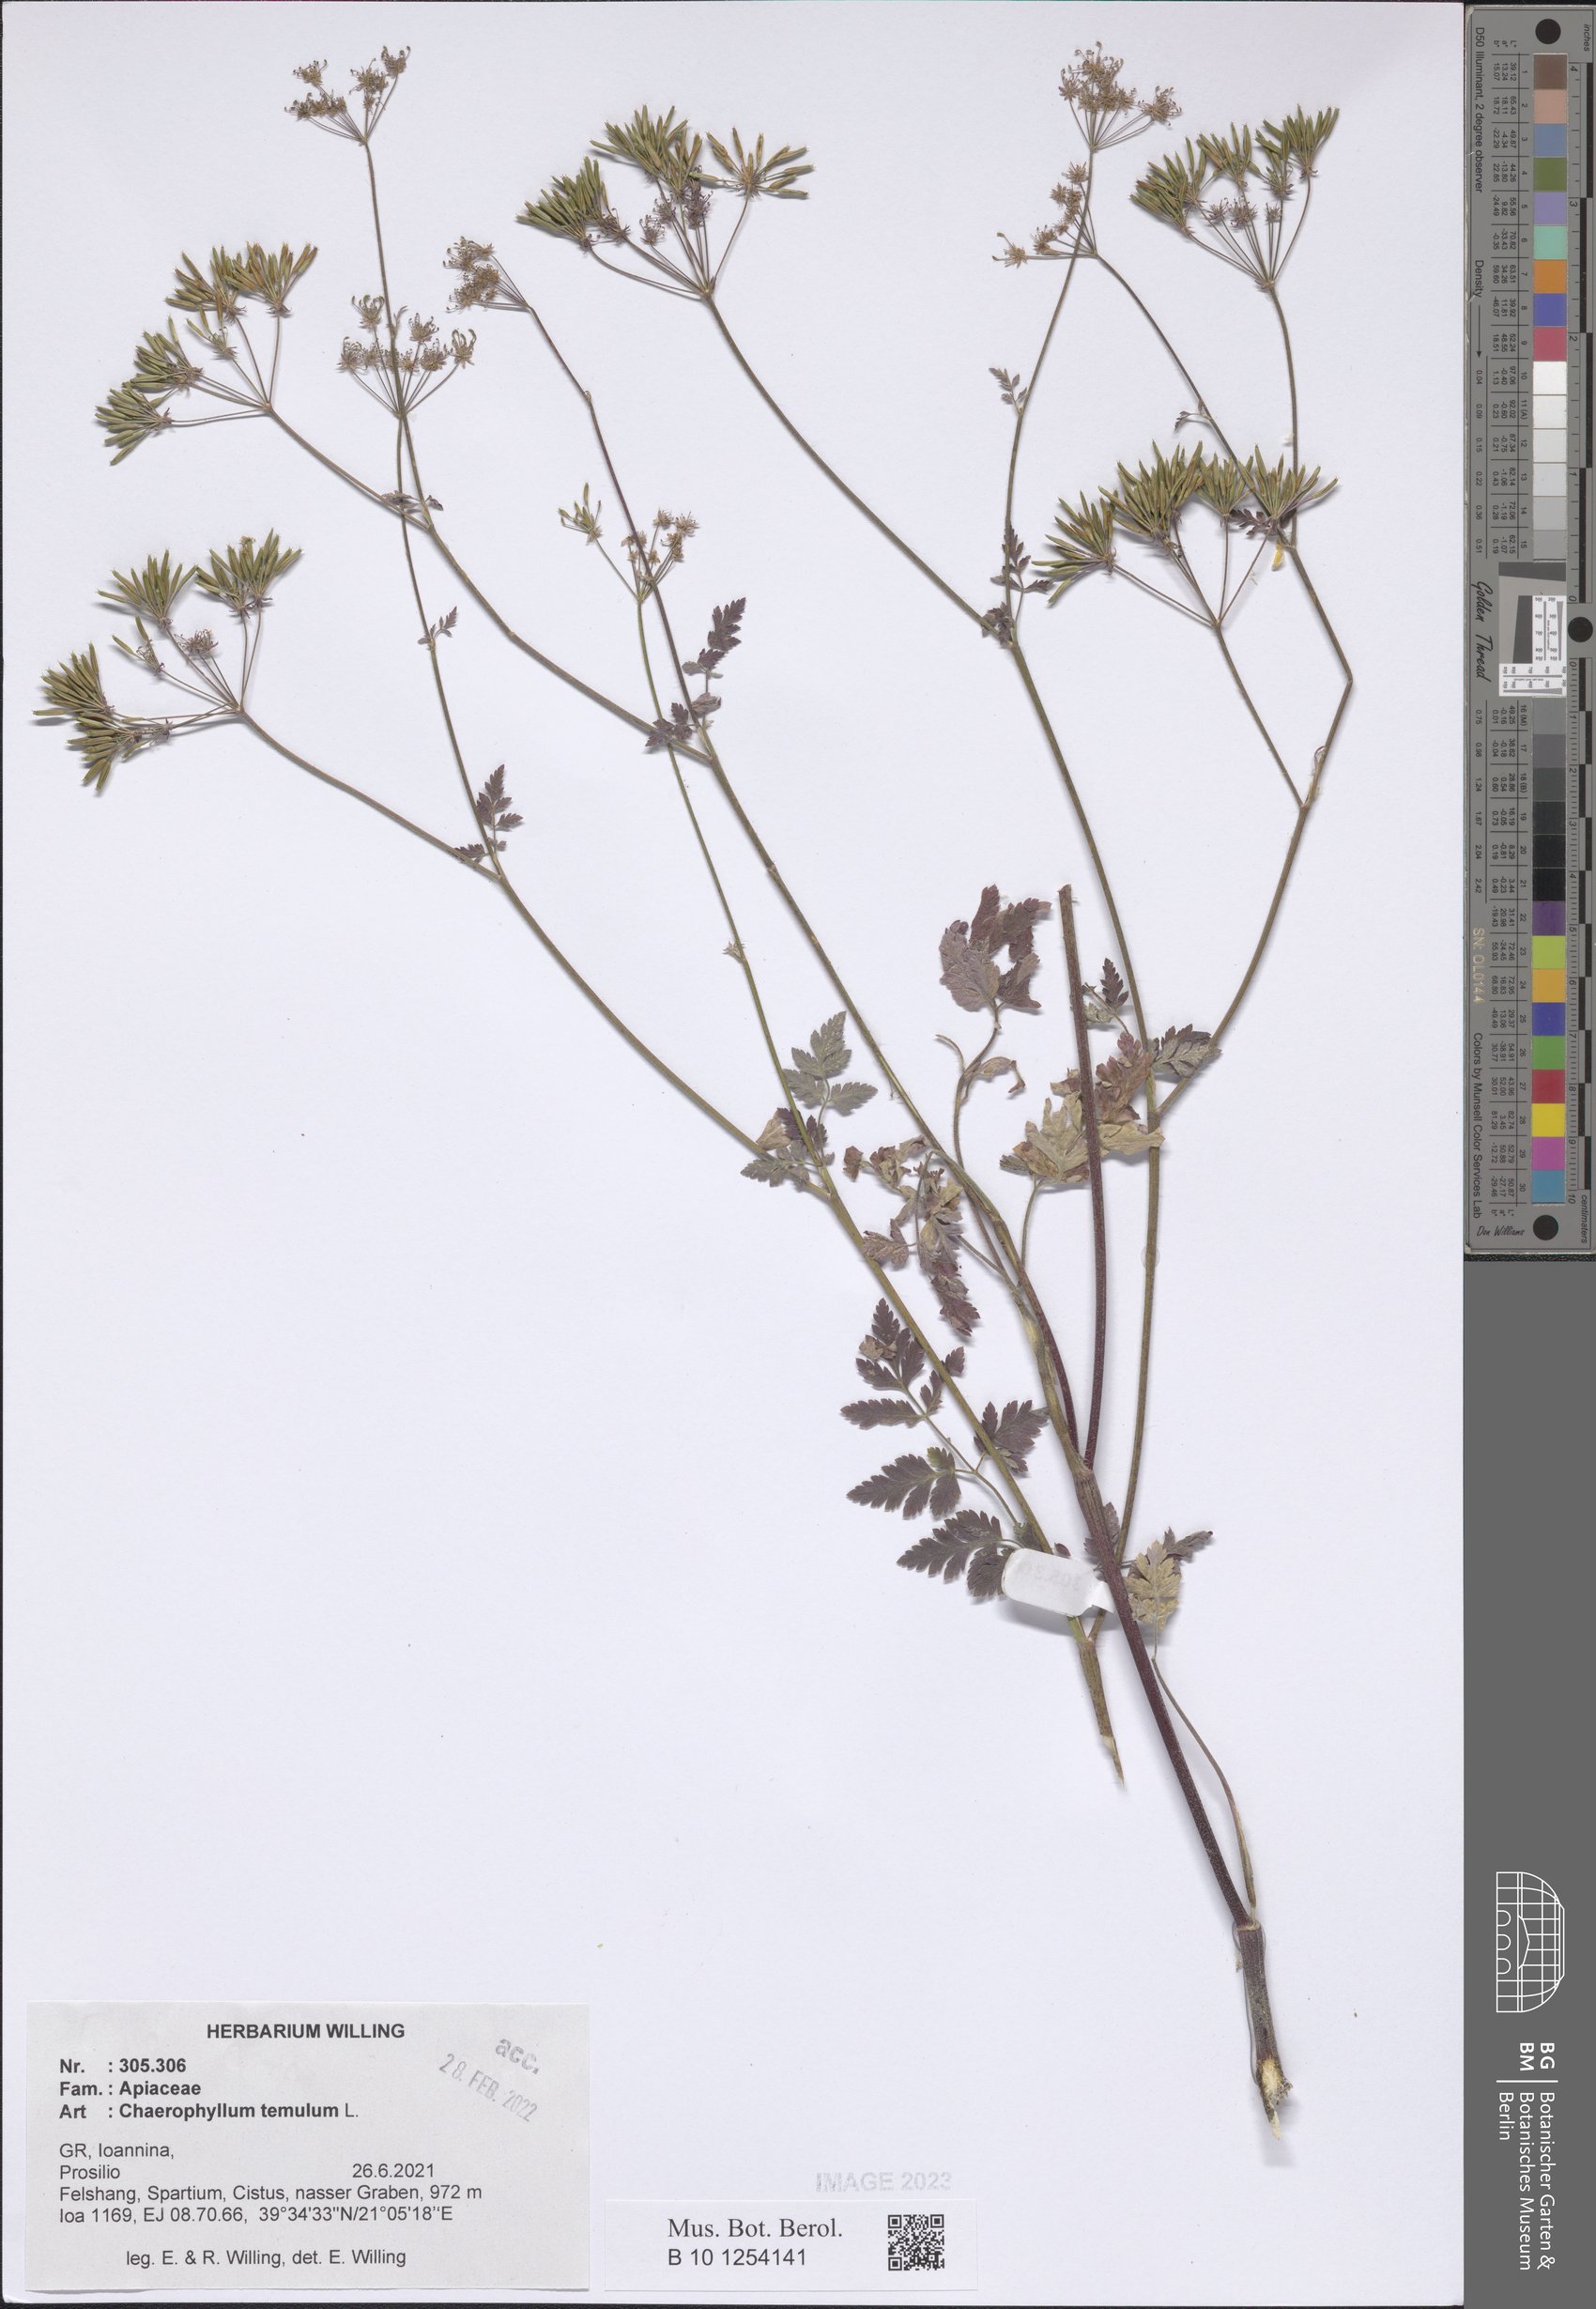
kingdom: Plantae
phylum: Tracheophyta
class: Magnoliopsida
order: Apiales
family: Apiaceae
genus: Chaerophyllum
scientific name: Chaerophyllum temulum
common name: Rough chervil
